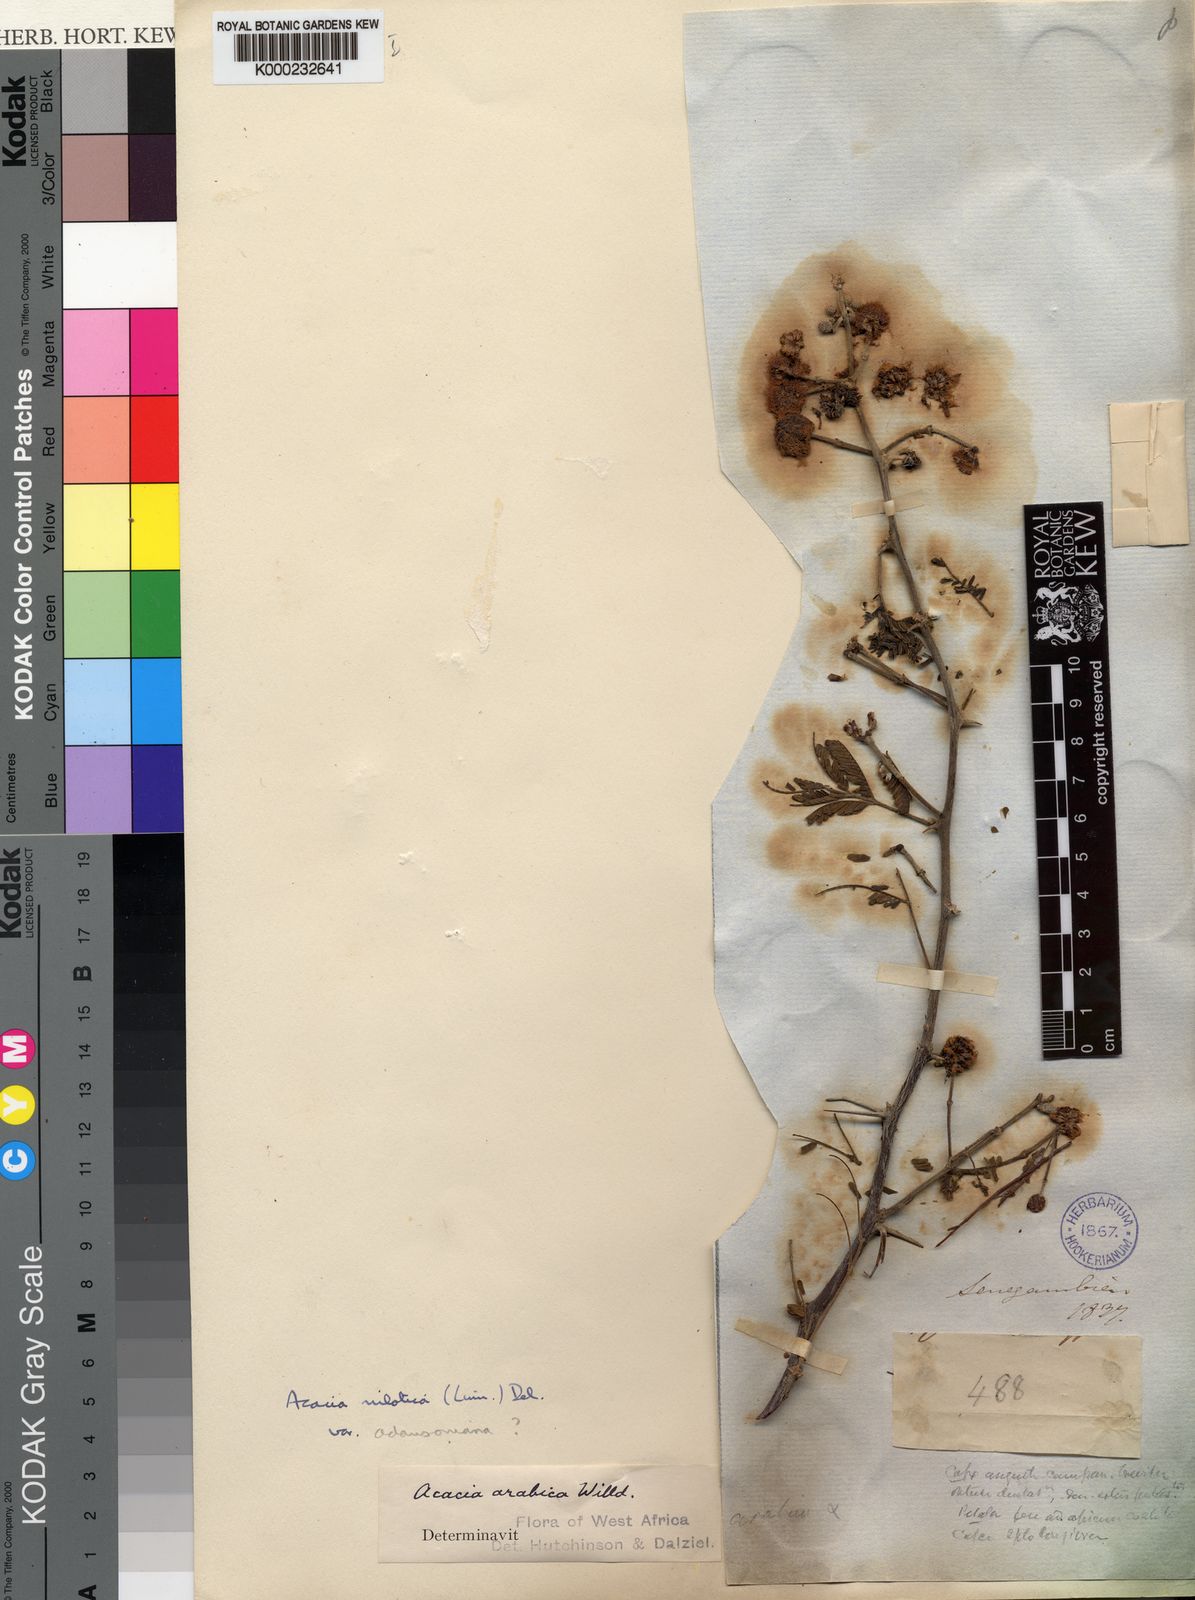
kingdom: Plantae
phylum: Tracheophyta
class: Magnoliopsida
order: Fabales
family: Fabaceae
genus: Vachellia
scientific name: Vachellia nilotica
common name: Arabic gumtree
